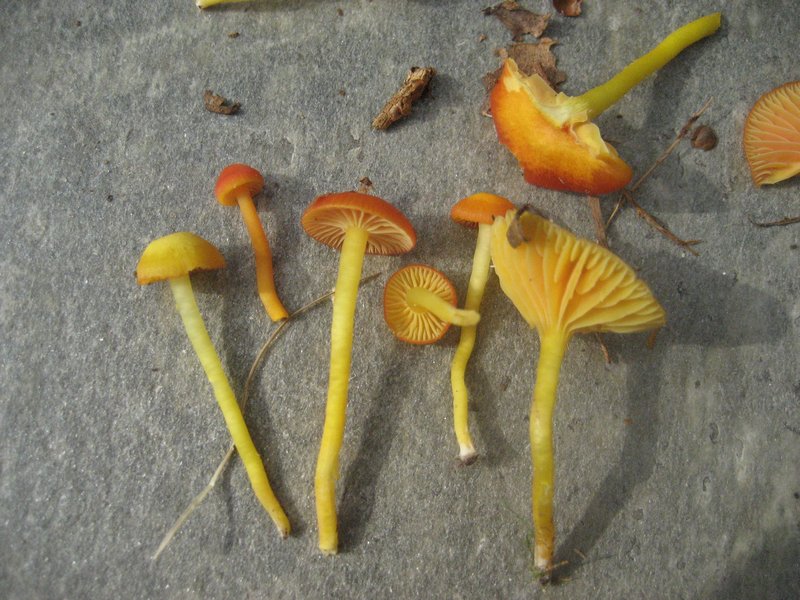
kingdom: Fungi
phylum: Basidiomycota
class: Agaricomycetes
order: Agaricales
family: Hygrophoraceae
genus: Hygrocybe
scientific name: Hygrocybe insipida
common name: liden vokshat
